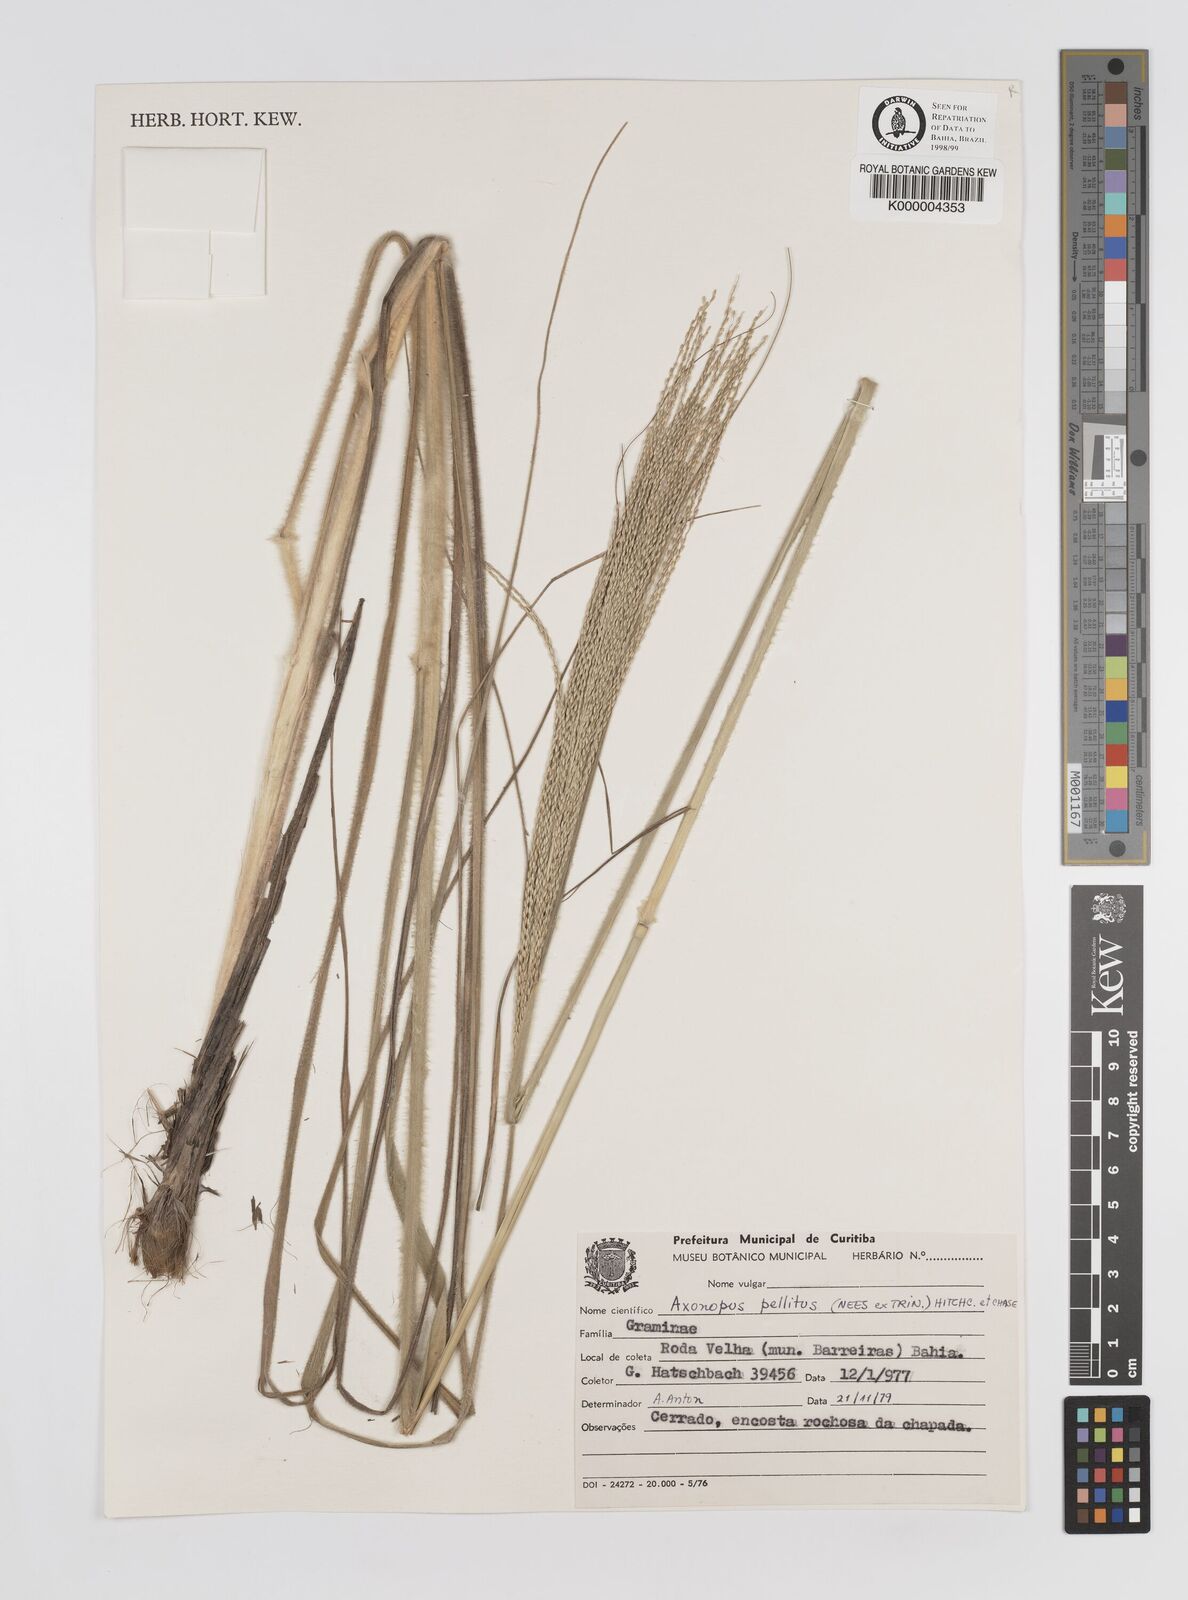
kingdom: Plantae
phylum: Tracheophyta
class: Liliopsida
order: Poales
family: Poaceae
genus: Axonopus
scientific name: Axonopus siccus
